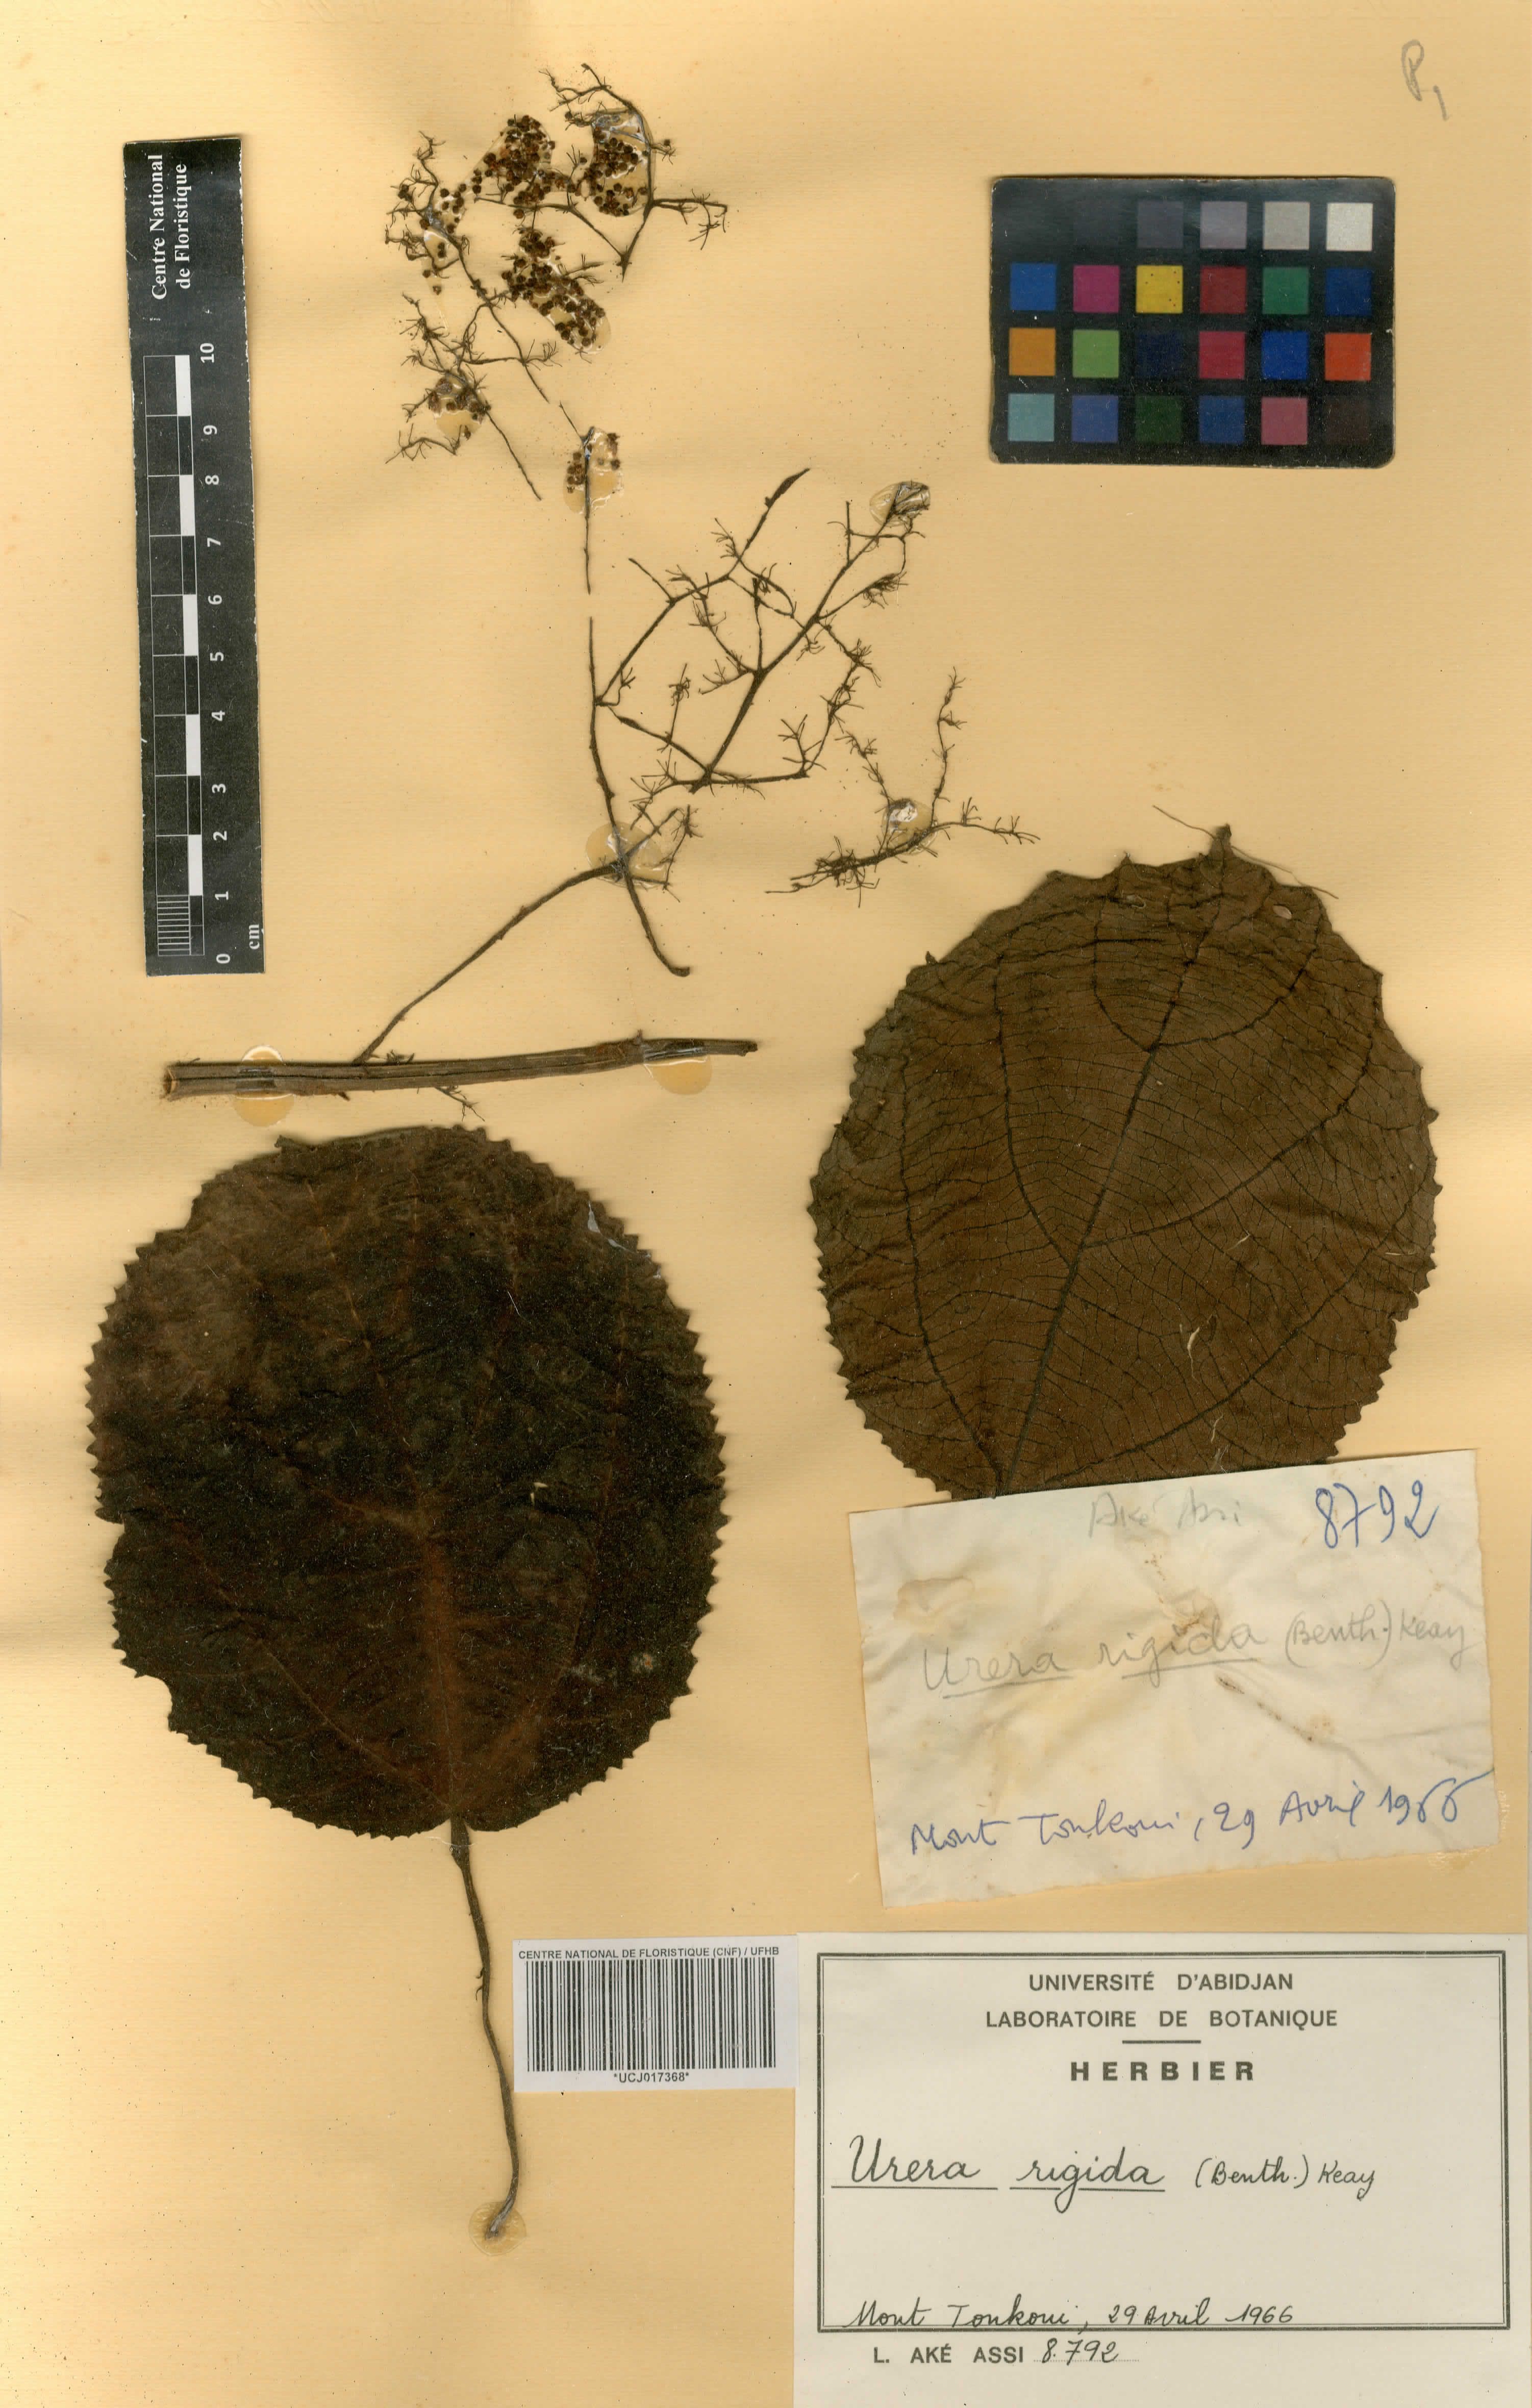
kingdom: Plantae
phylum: Tracheophyta
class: Magnoliopsida
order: Rosales
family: Urticaceae
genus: Scepocarpus
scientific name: Scepocarpus rigidus
